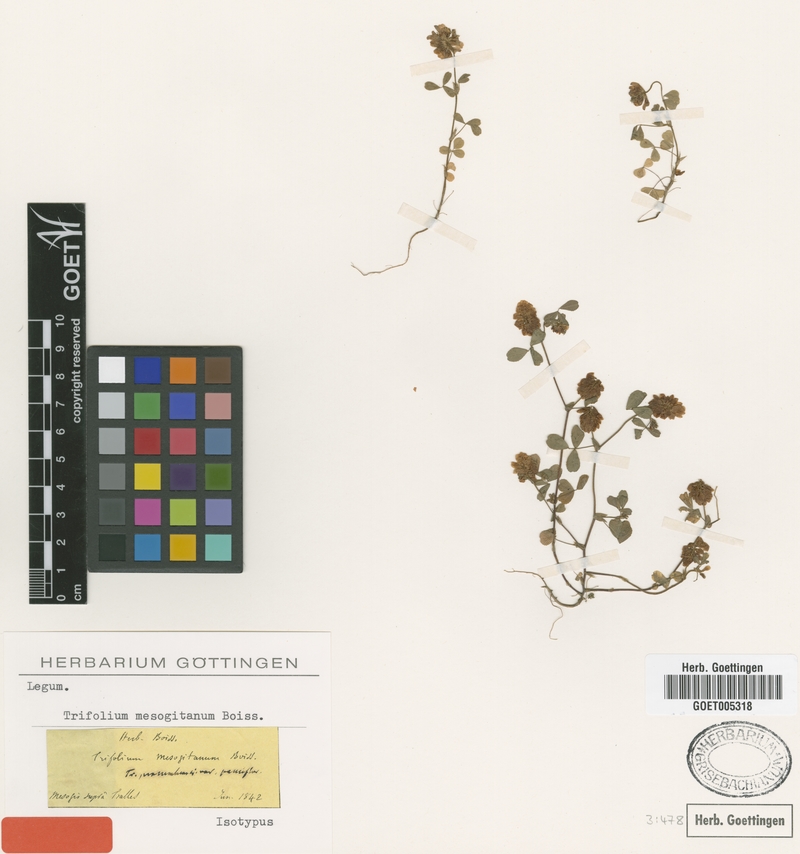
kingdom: Plantae
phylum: Tracheophyta
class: Magnoliopsida
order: Fabales
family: Fabaceae
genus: Trifolium
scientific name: Trifolium mesogitanum
